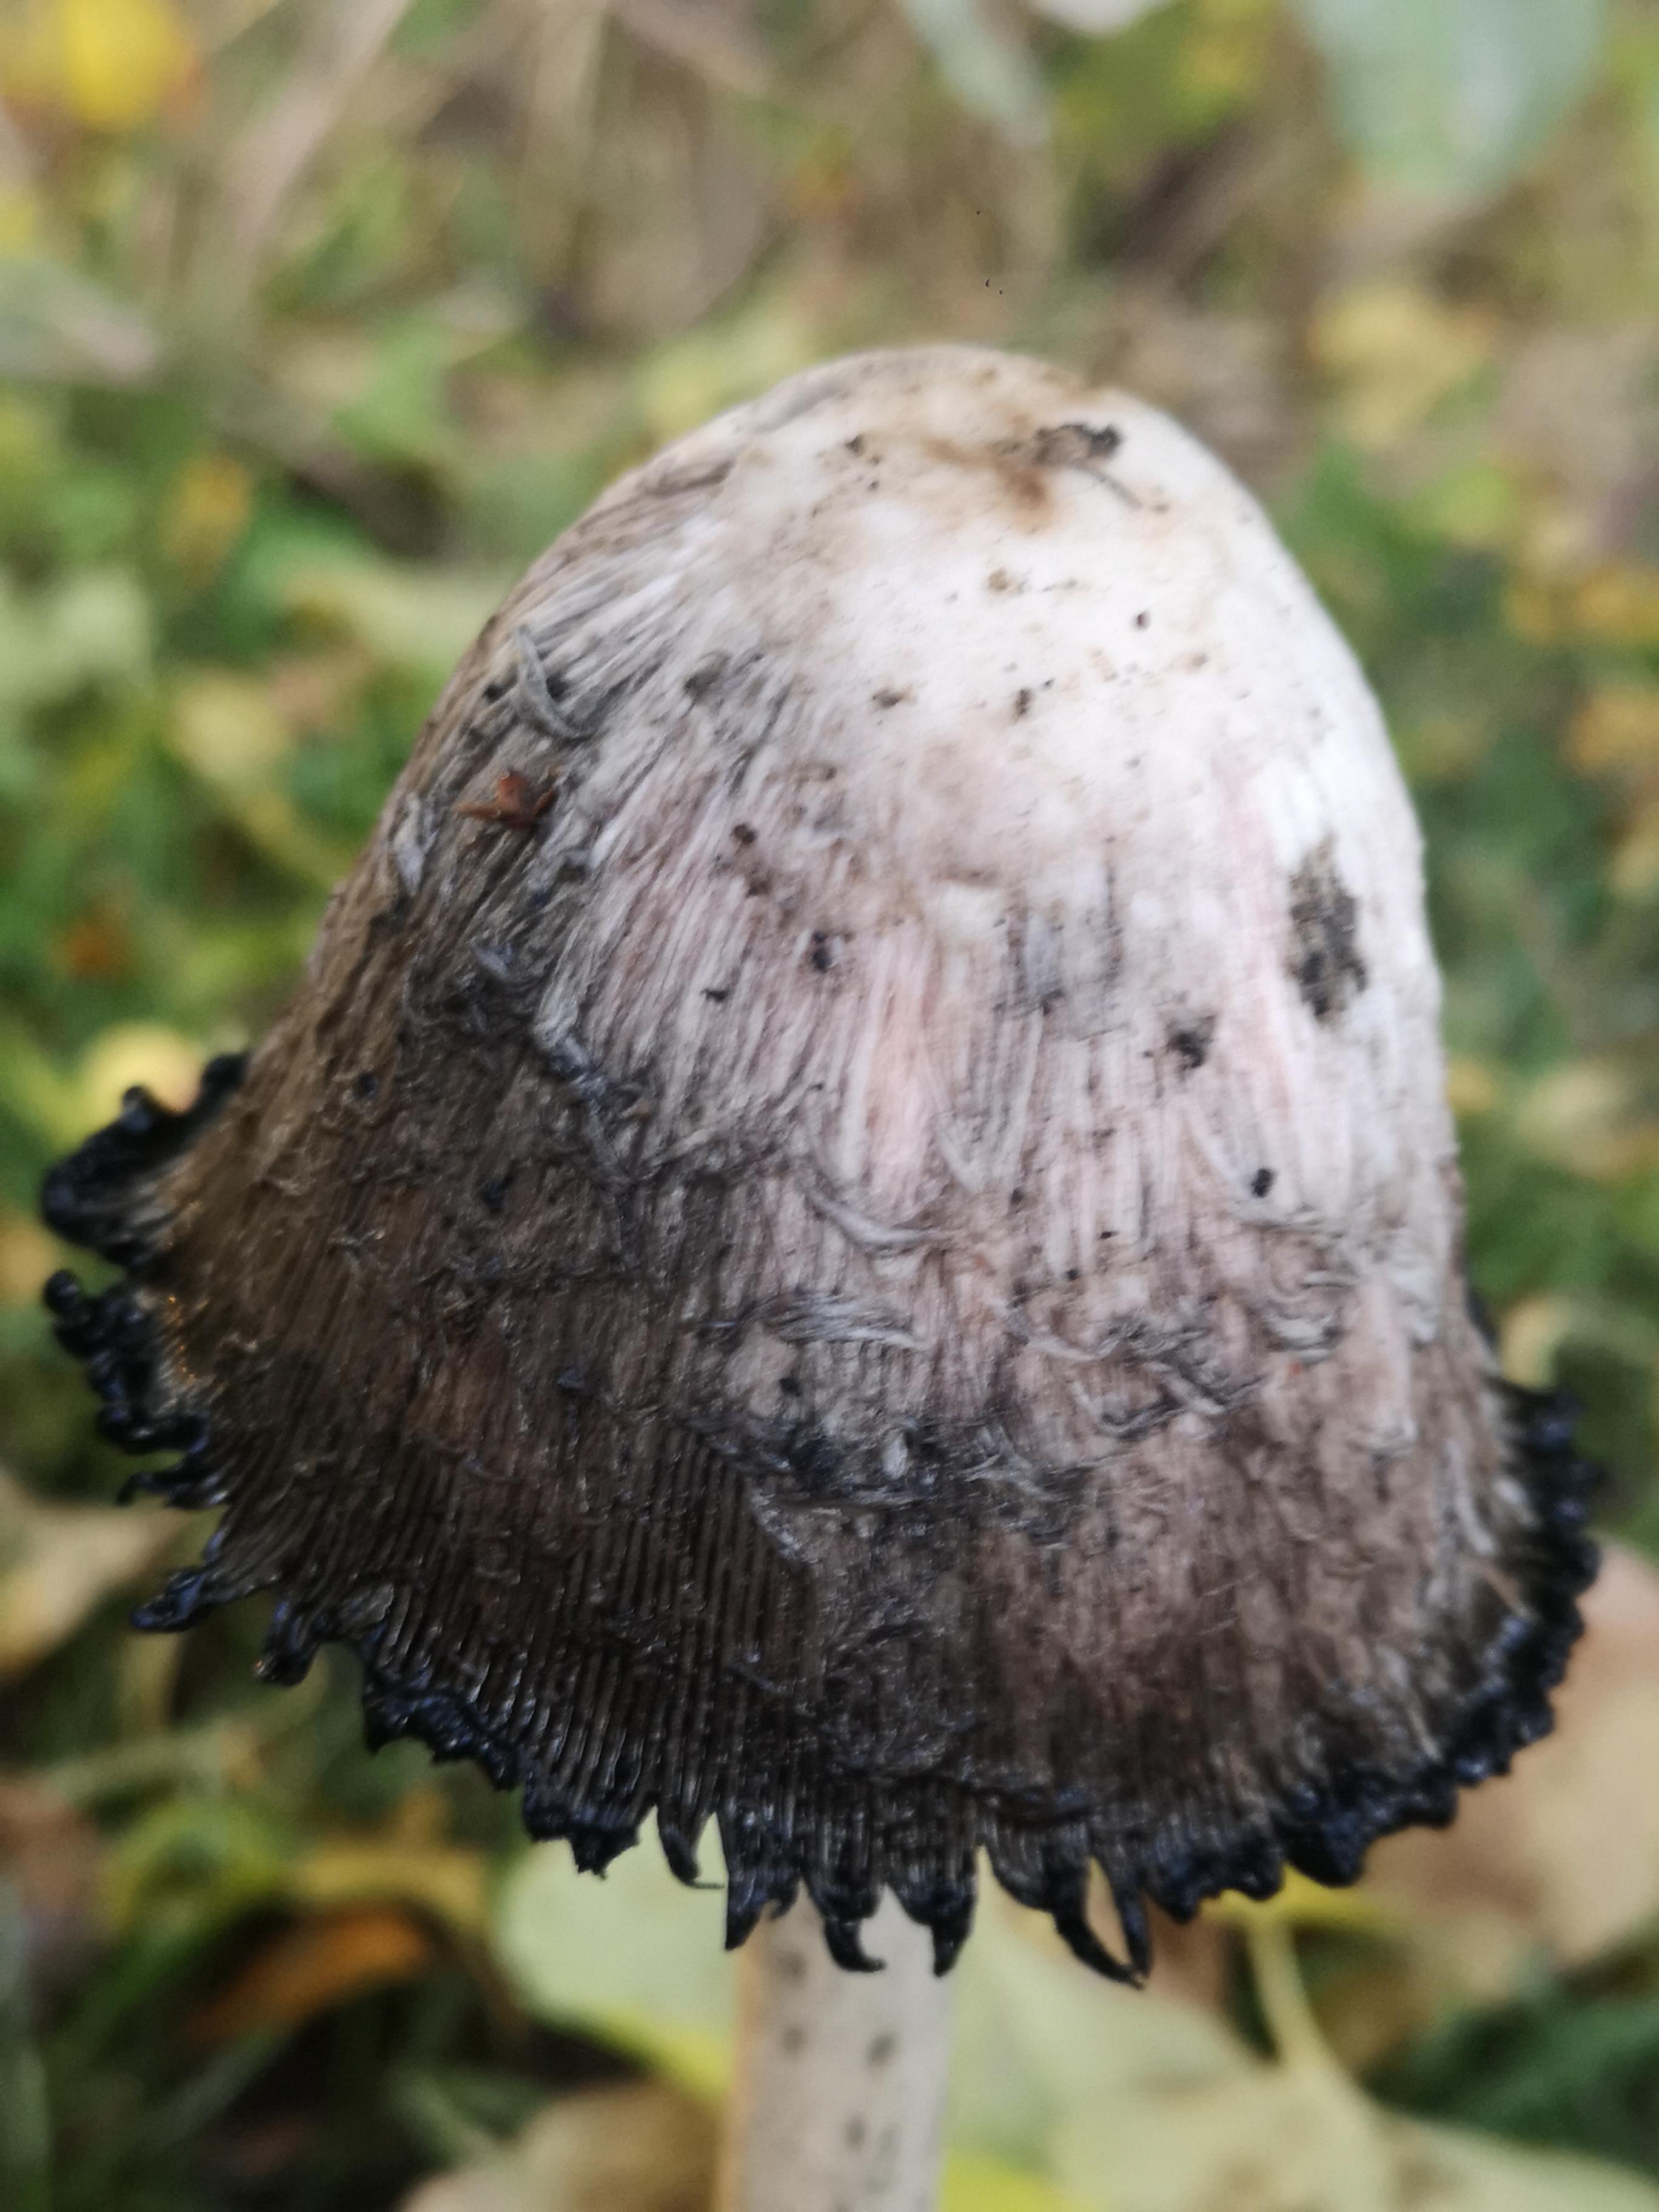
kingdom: Fungi
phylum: Basidiomycota
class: Agaricomycetes
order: Agaricales
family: Agaricaceae
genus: Coprinus
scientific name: Coprinus comatus
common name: stor parykhat
